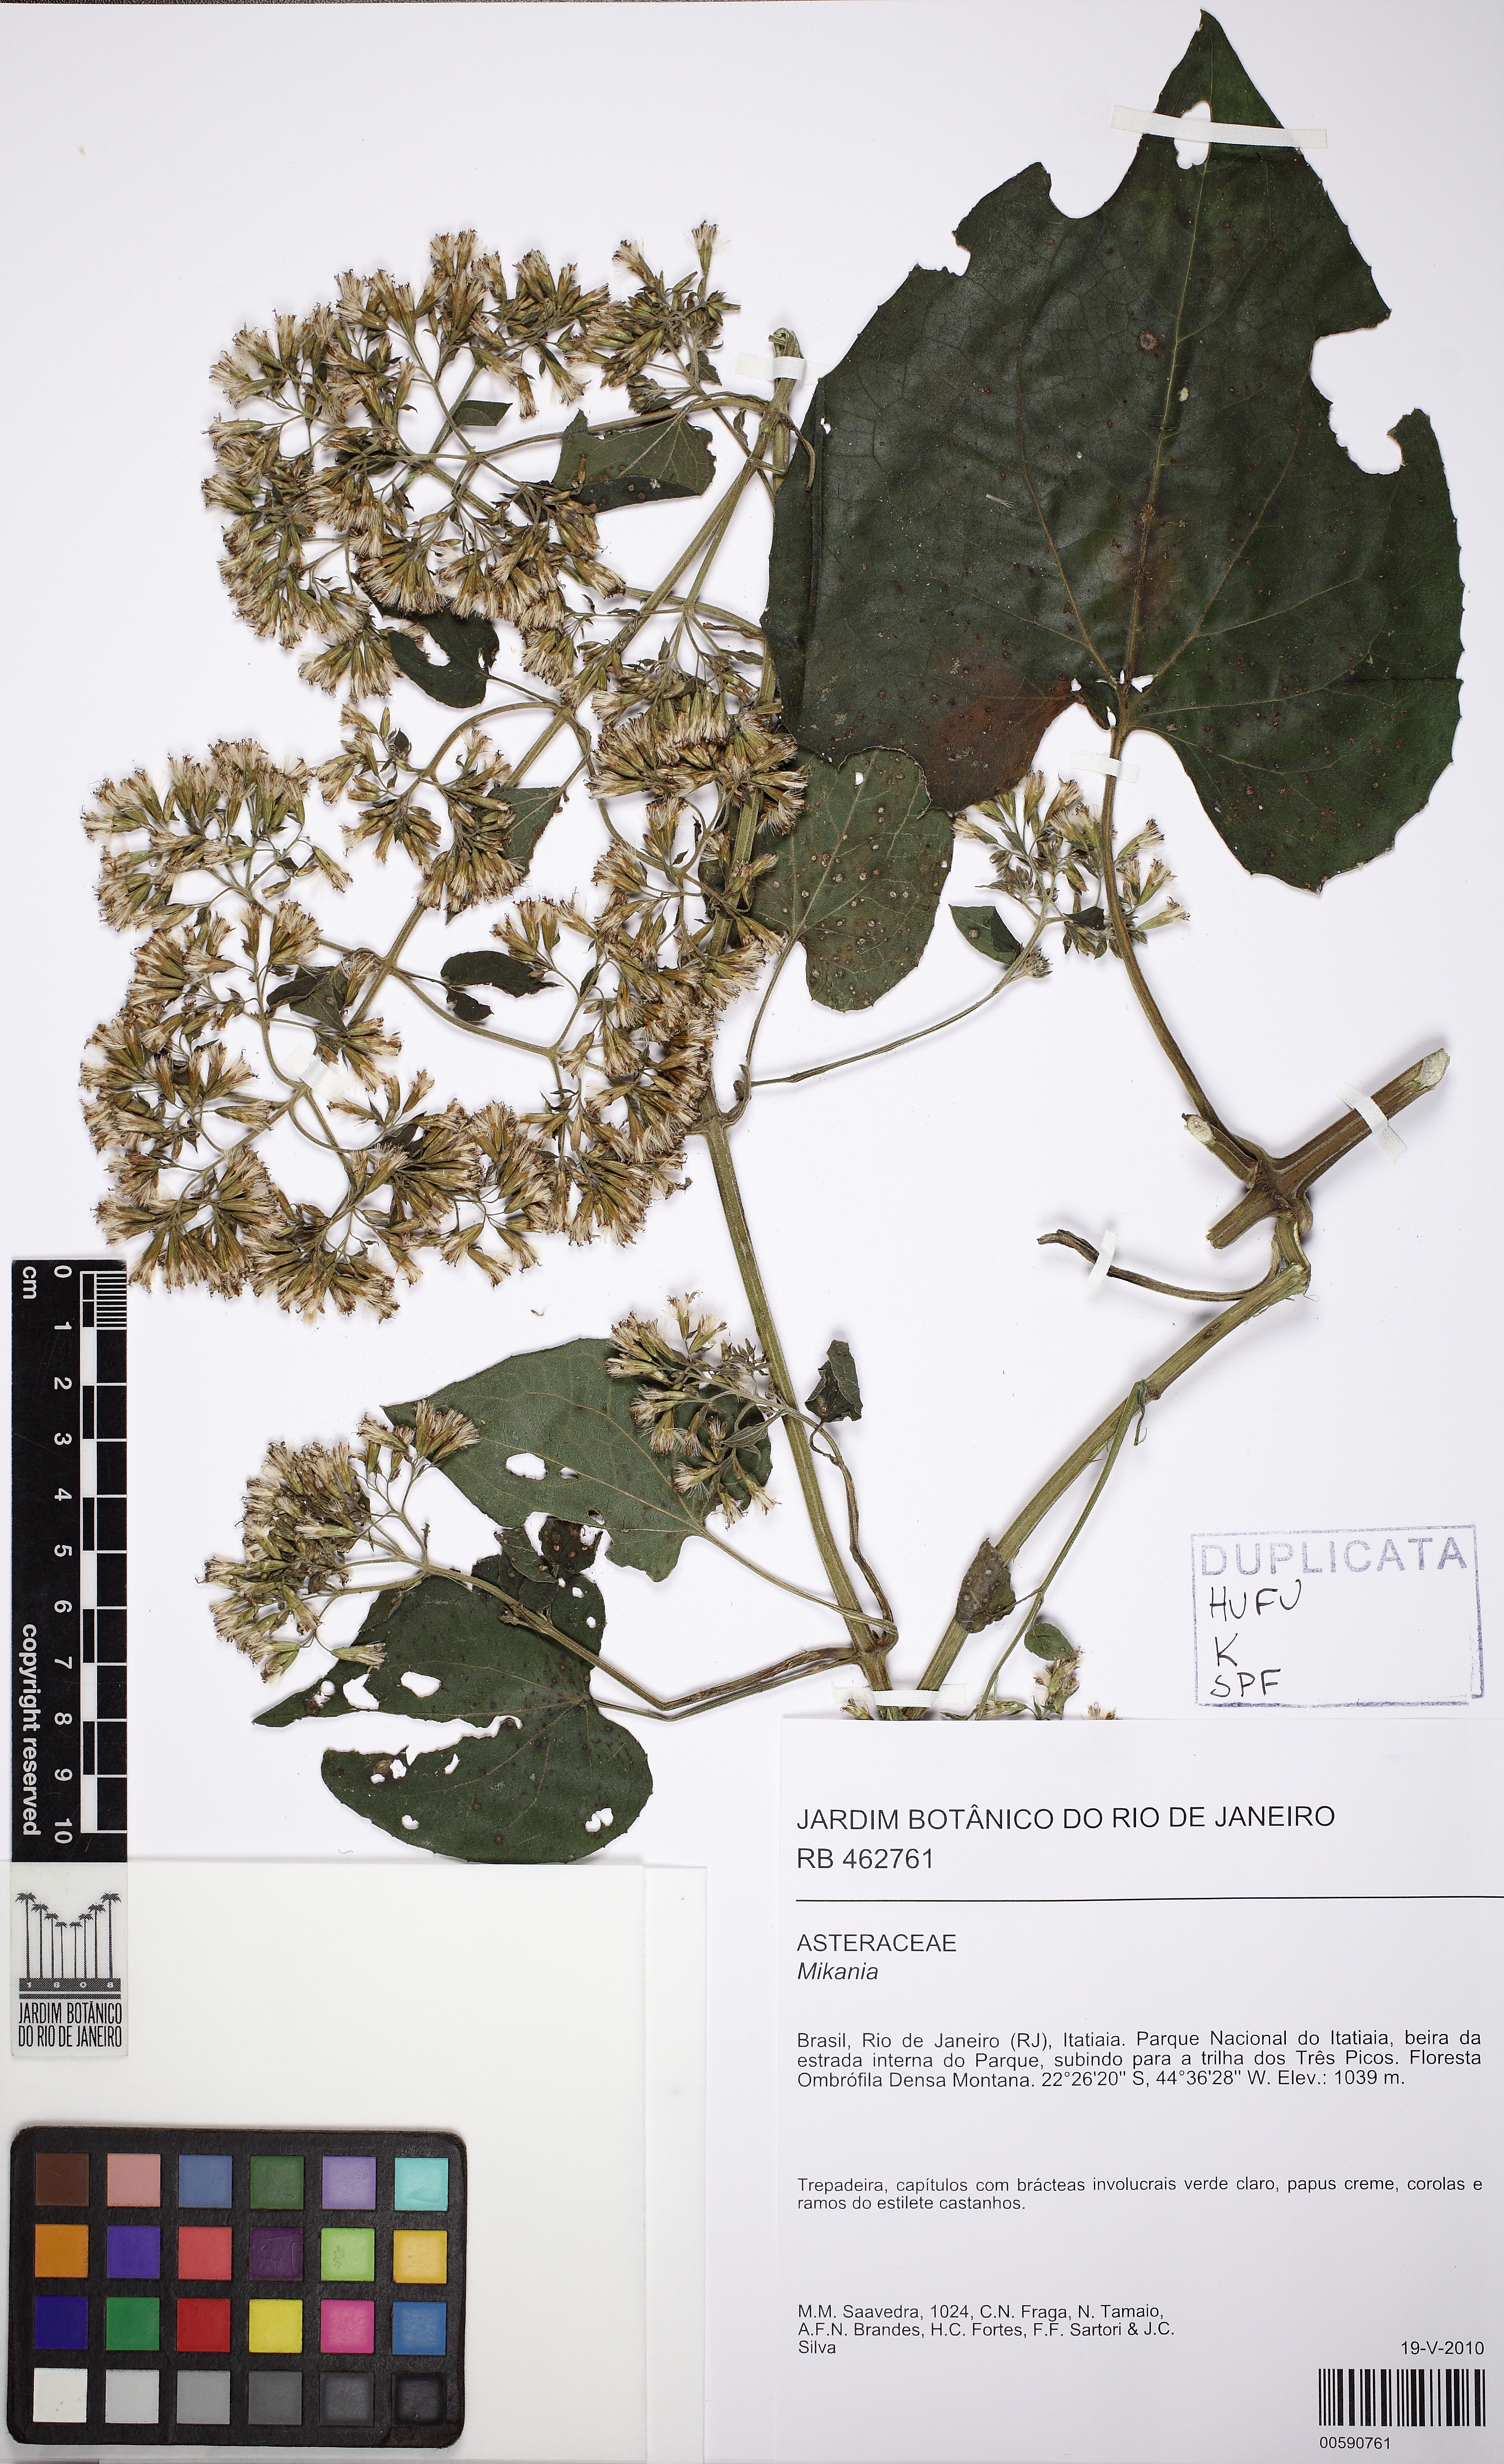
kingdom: Plantae
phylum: Tracheophyta
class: Magnoliopsida
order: Asterales
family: Asteraceae
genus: Mikania
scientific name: Mikania
